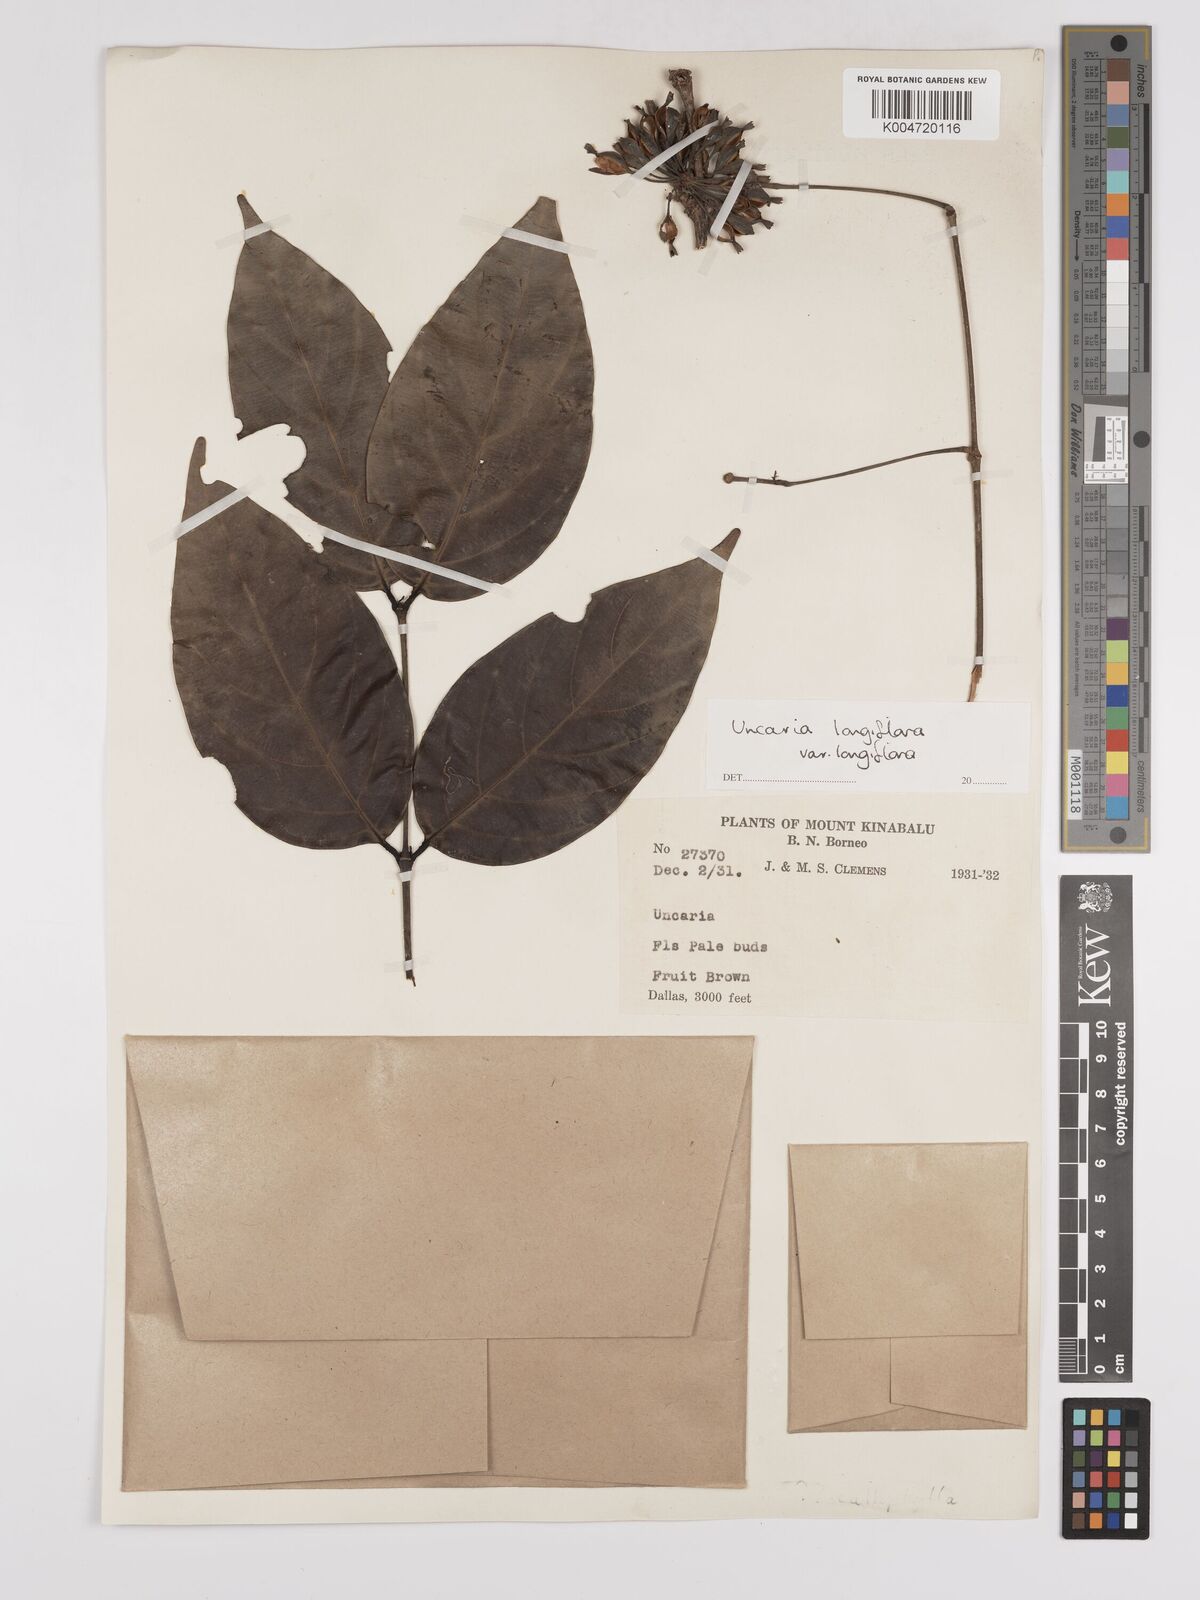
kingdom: Plantae
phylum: Tracheophyta
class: Magnoliopsida
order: Gentianales
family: Rubiaceae
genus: Uncaria
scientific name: Uncaria
